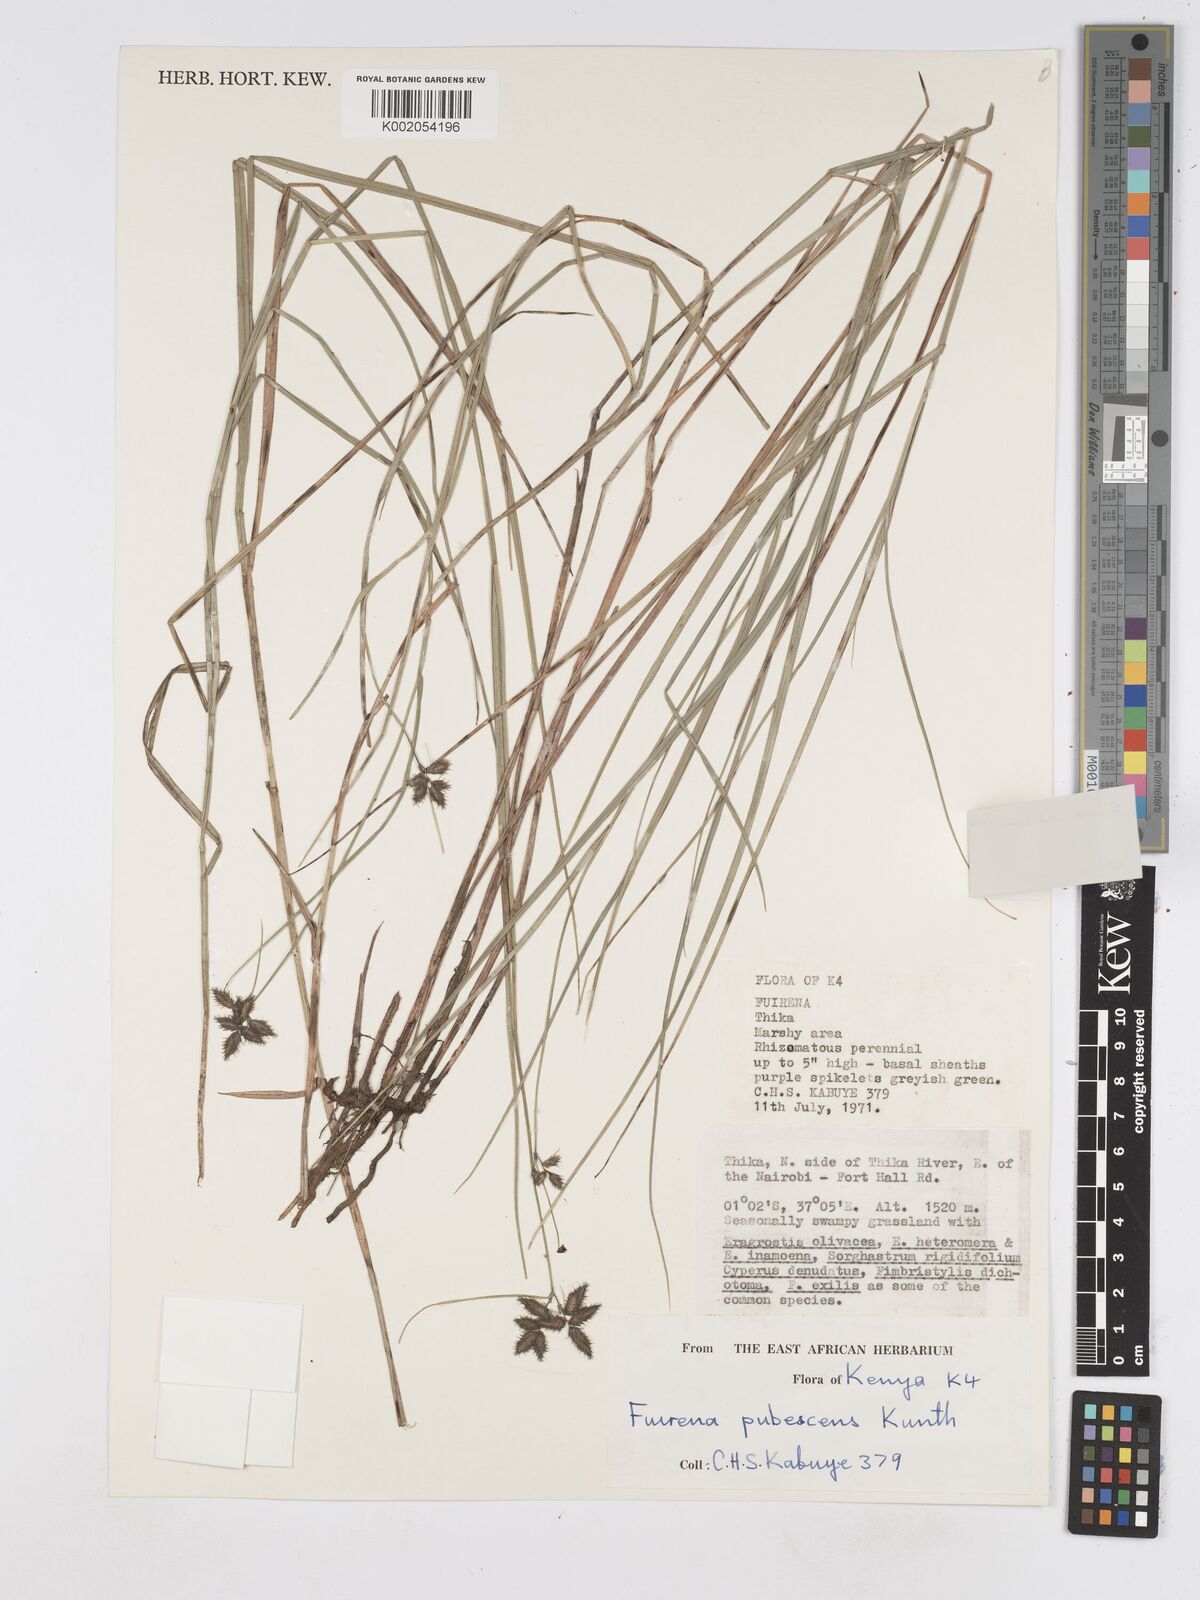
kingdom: Plantae
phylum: Tracheophyta
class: Liliopsida
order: Poales
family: Cyperaceae
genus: Fuirena
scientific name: Fuirena welwitschii
